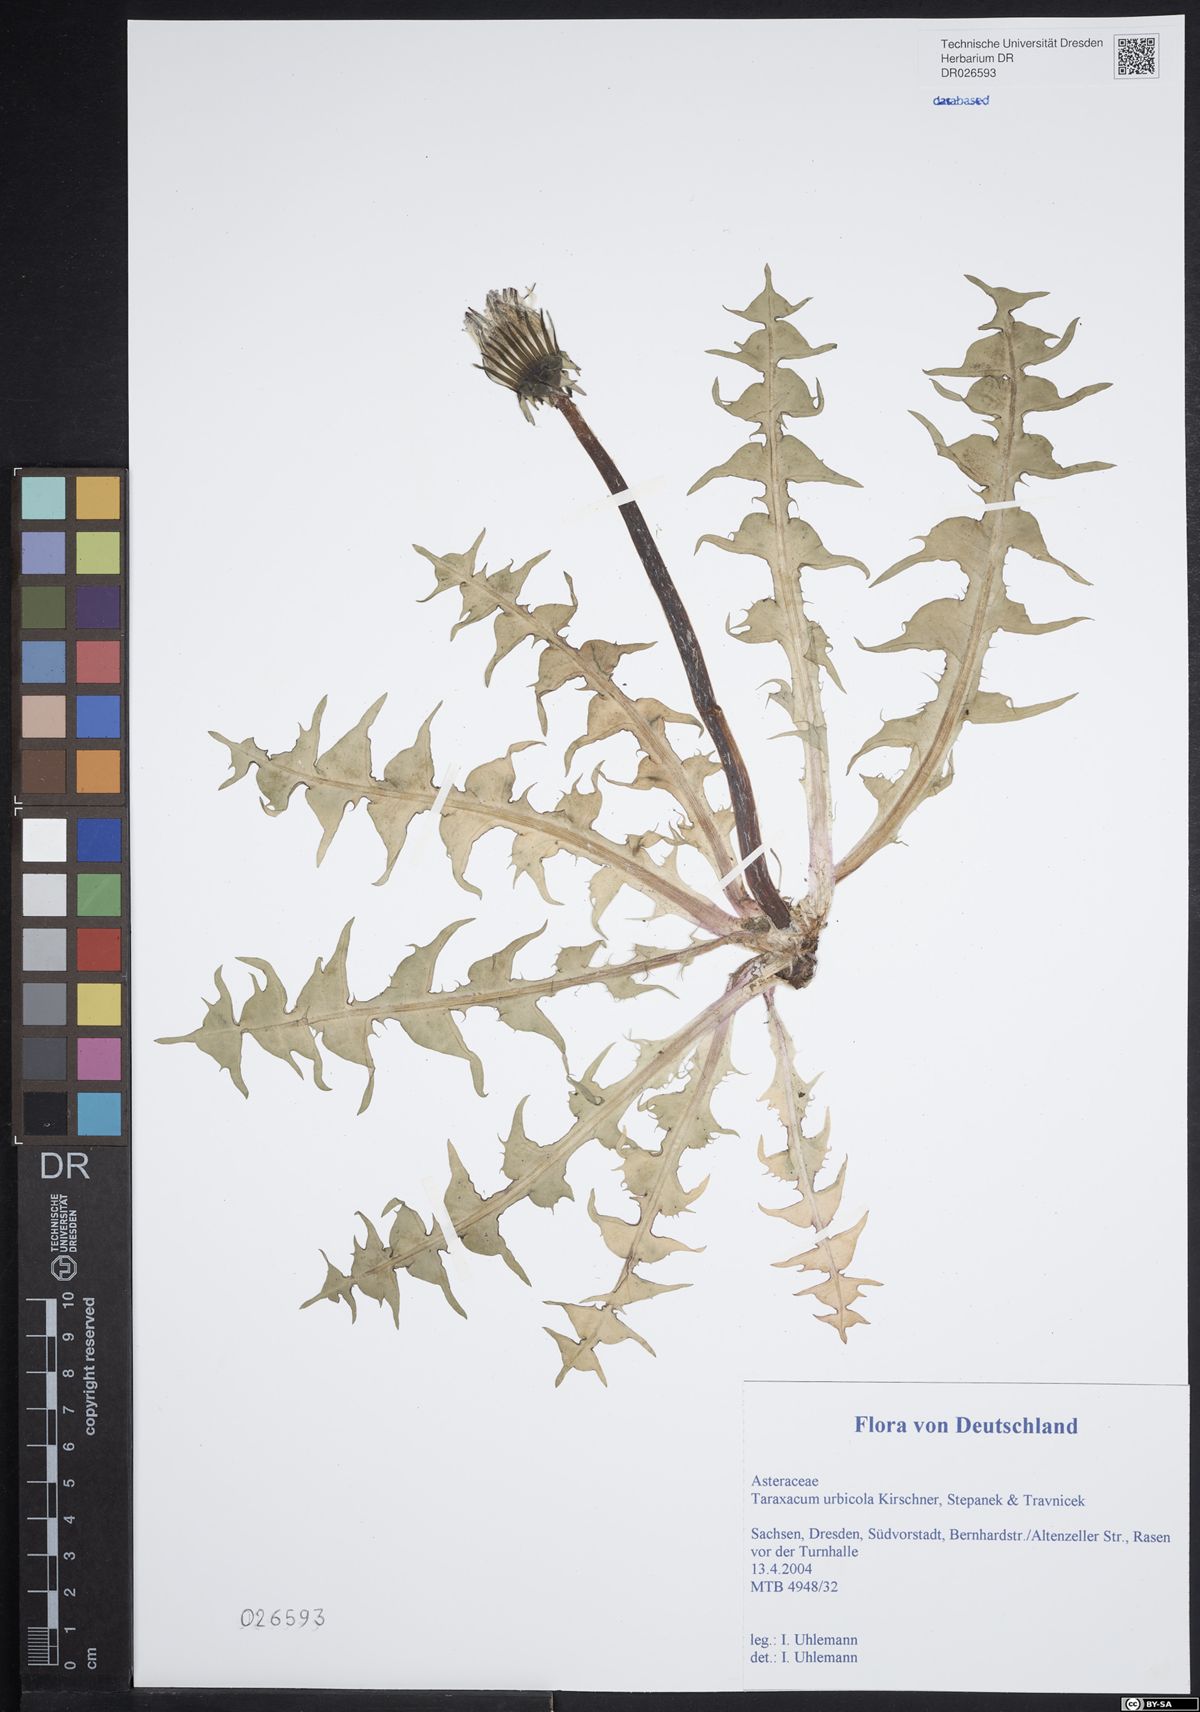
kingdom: Plantae
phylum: Tracheophyta
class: Magnoliopsida
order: Asterales
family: Asteraceae
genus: Taraxacum
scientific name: Taraxacum urbicola
